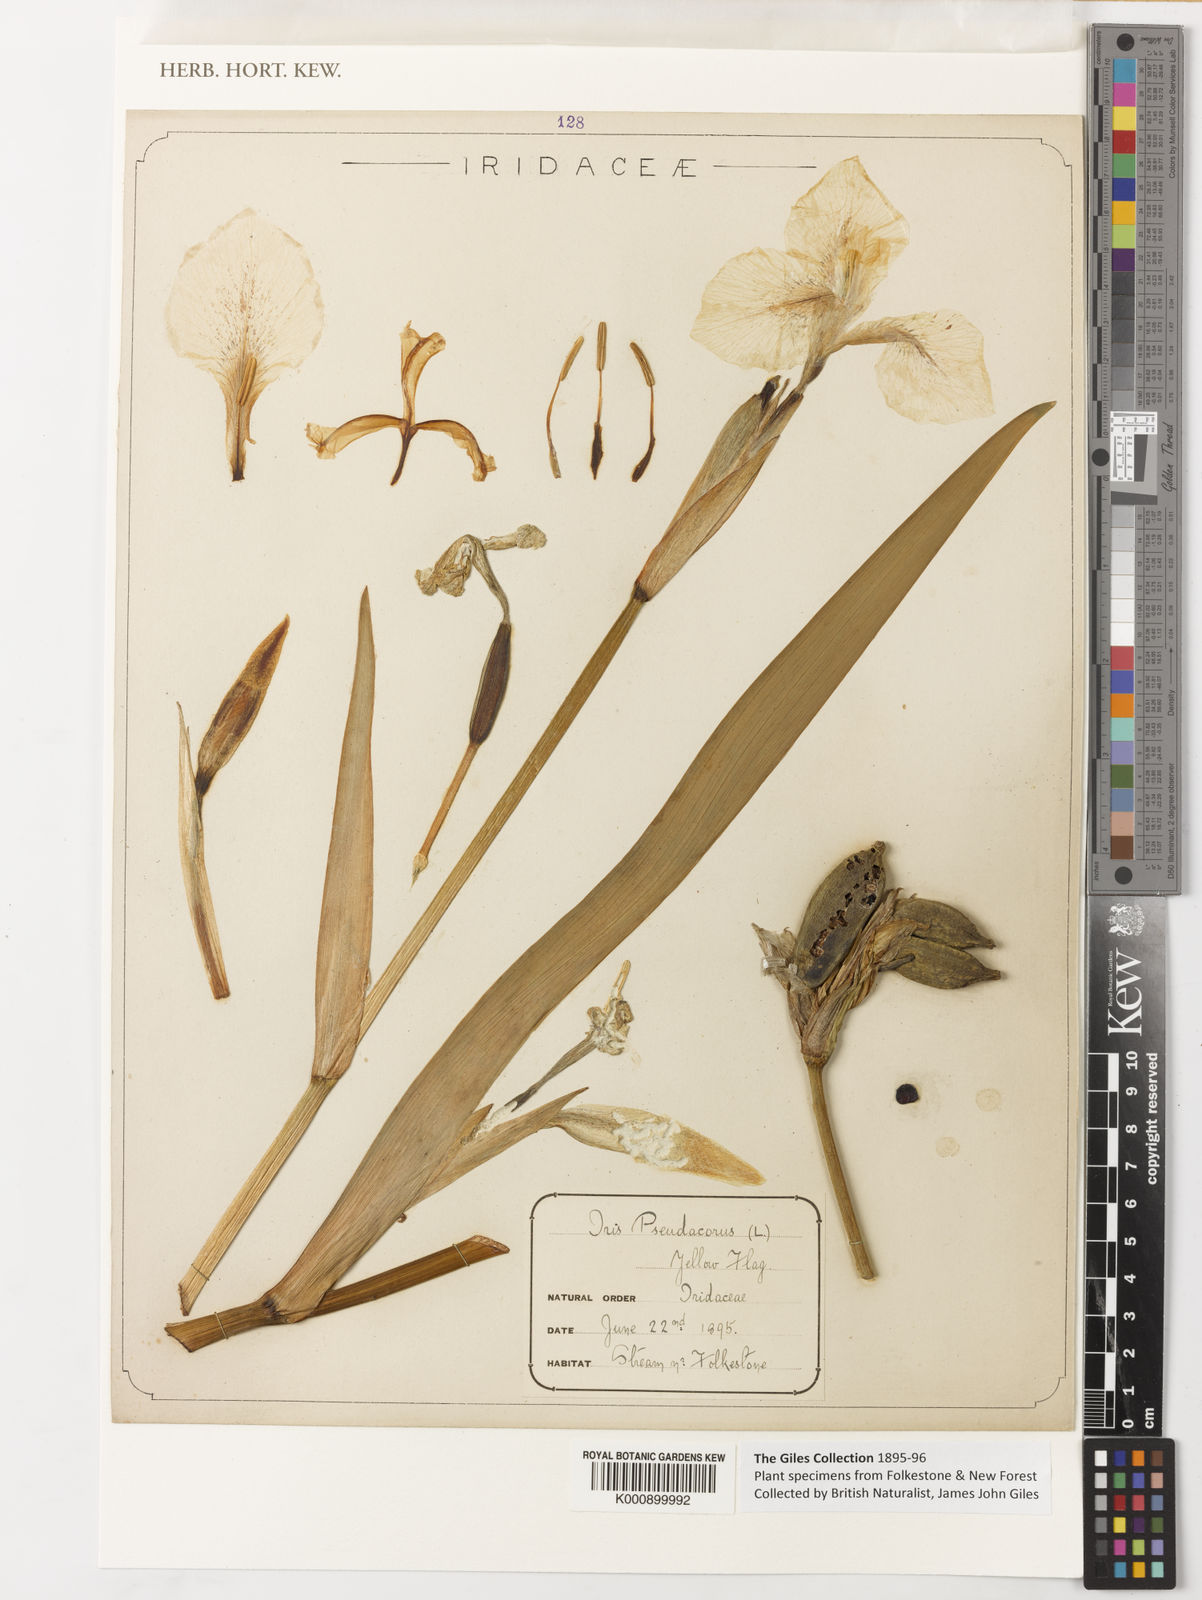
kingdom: Plantae
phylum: Tracheophyta
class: Liliopsida
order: Asparagales
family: Iridaceae
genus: Iris
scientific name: Iris pseudacorus
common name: Yellow flag
